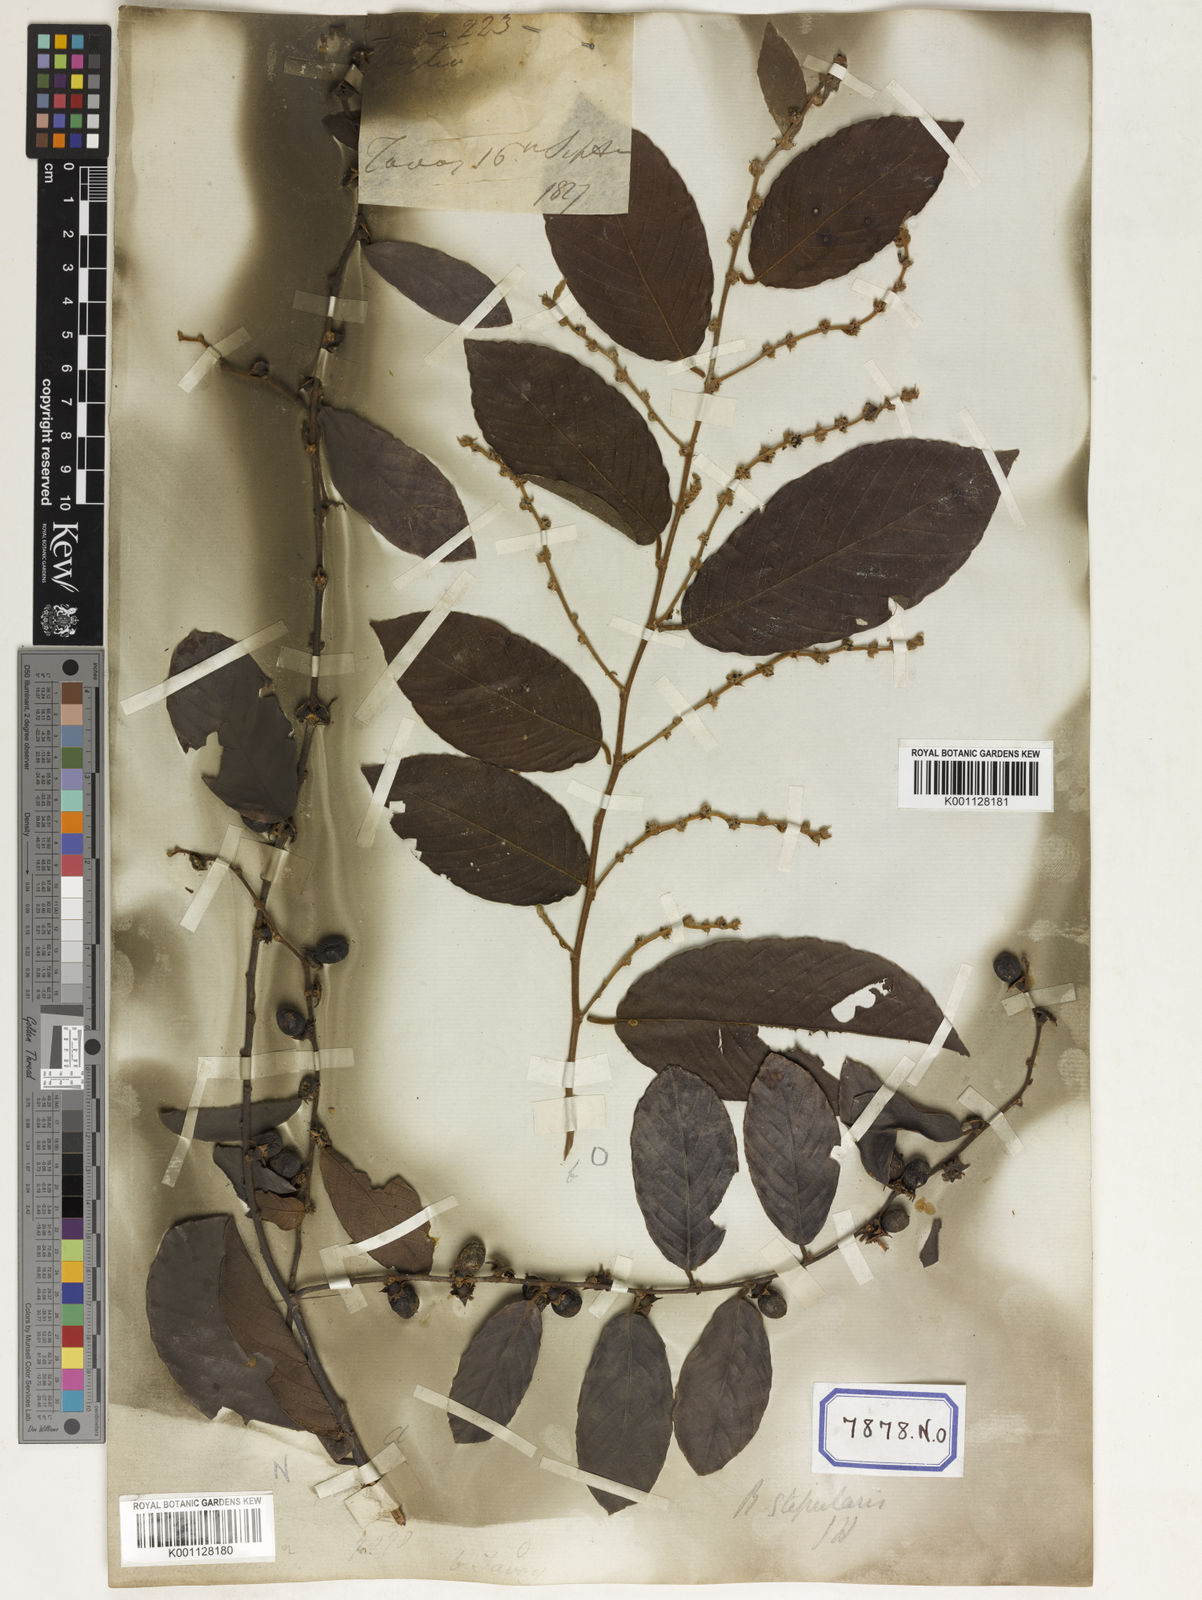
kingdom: Plantae
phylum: Tracheophyta
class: Magnoliopsida
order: Malpighiales
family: Phyllanthaceae
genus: Bridelia
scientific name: Bridelia
